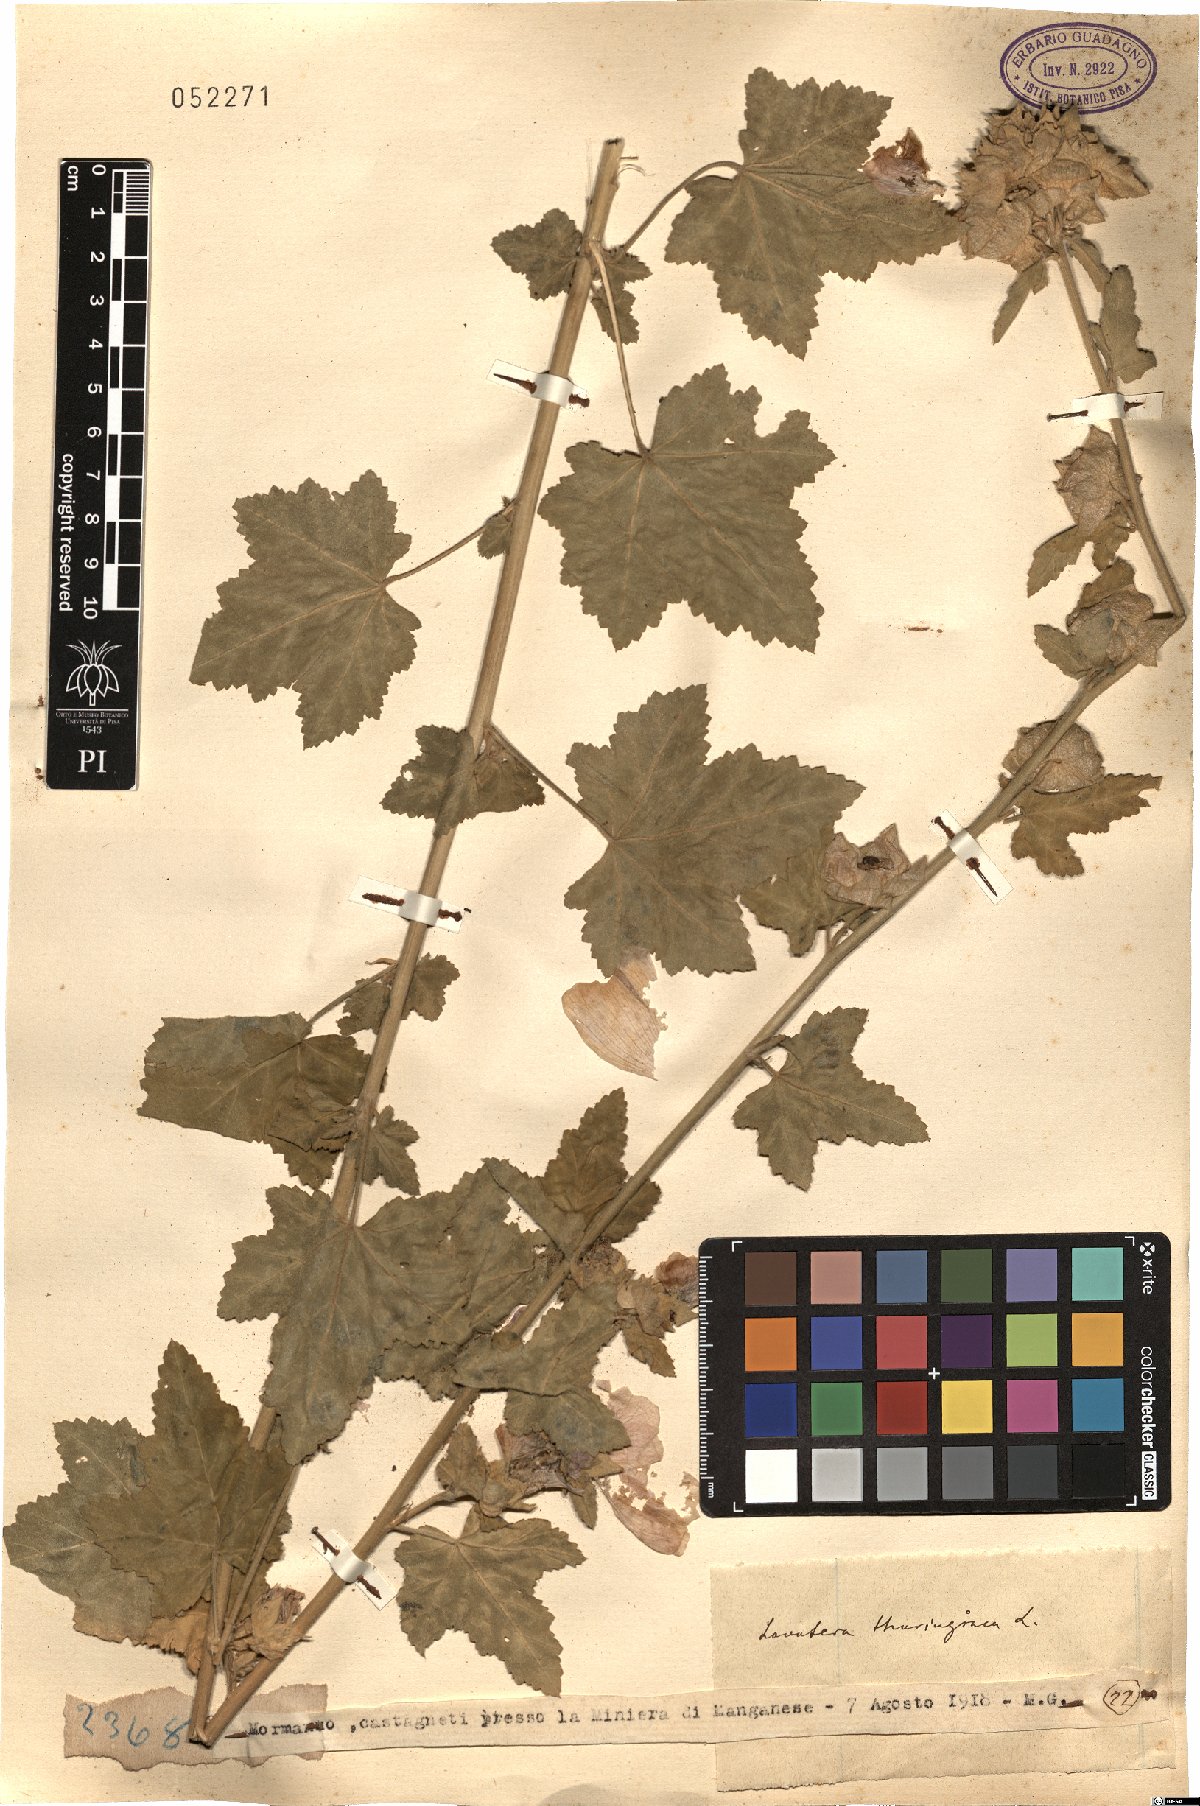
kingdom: Plantae
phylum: Tracheophyta
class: Magnoliopsida
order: Malvales
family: Malvaceae
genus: Malva
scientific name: Malva thuringiaca
